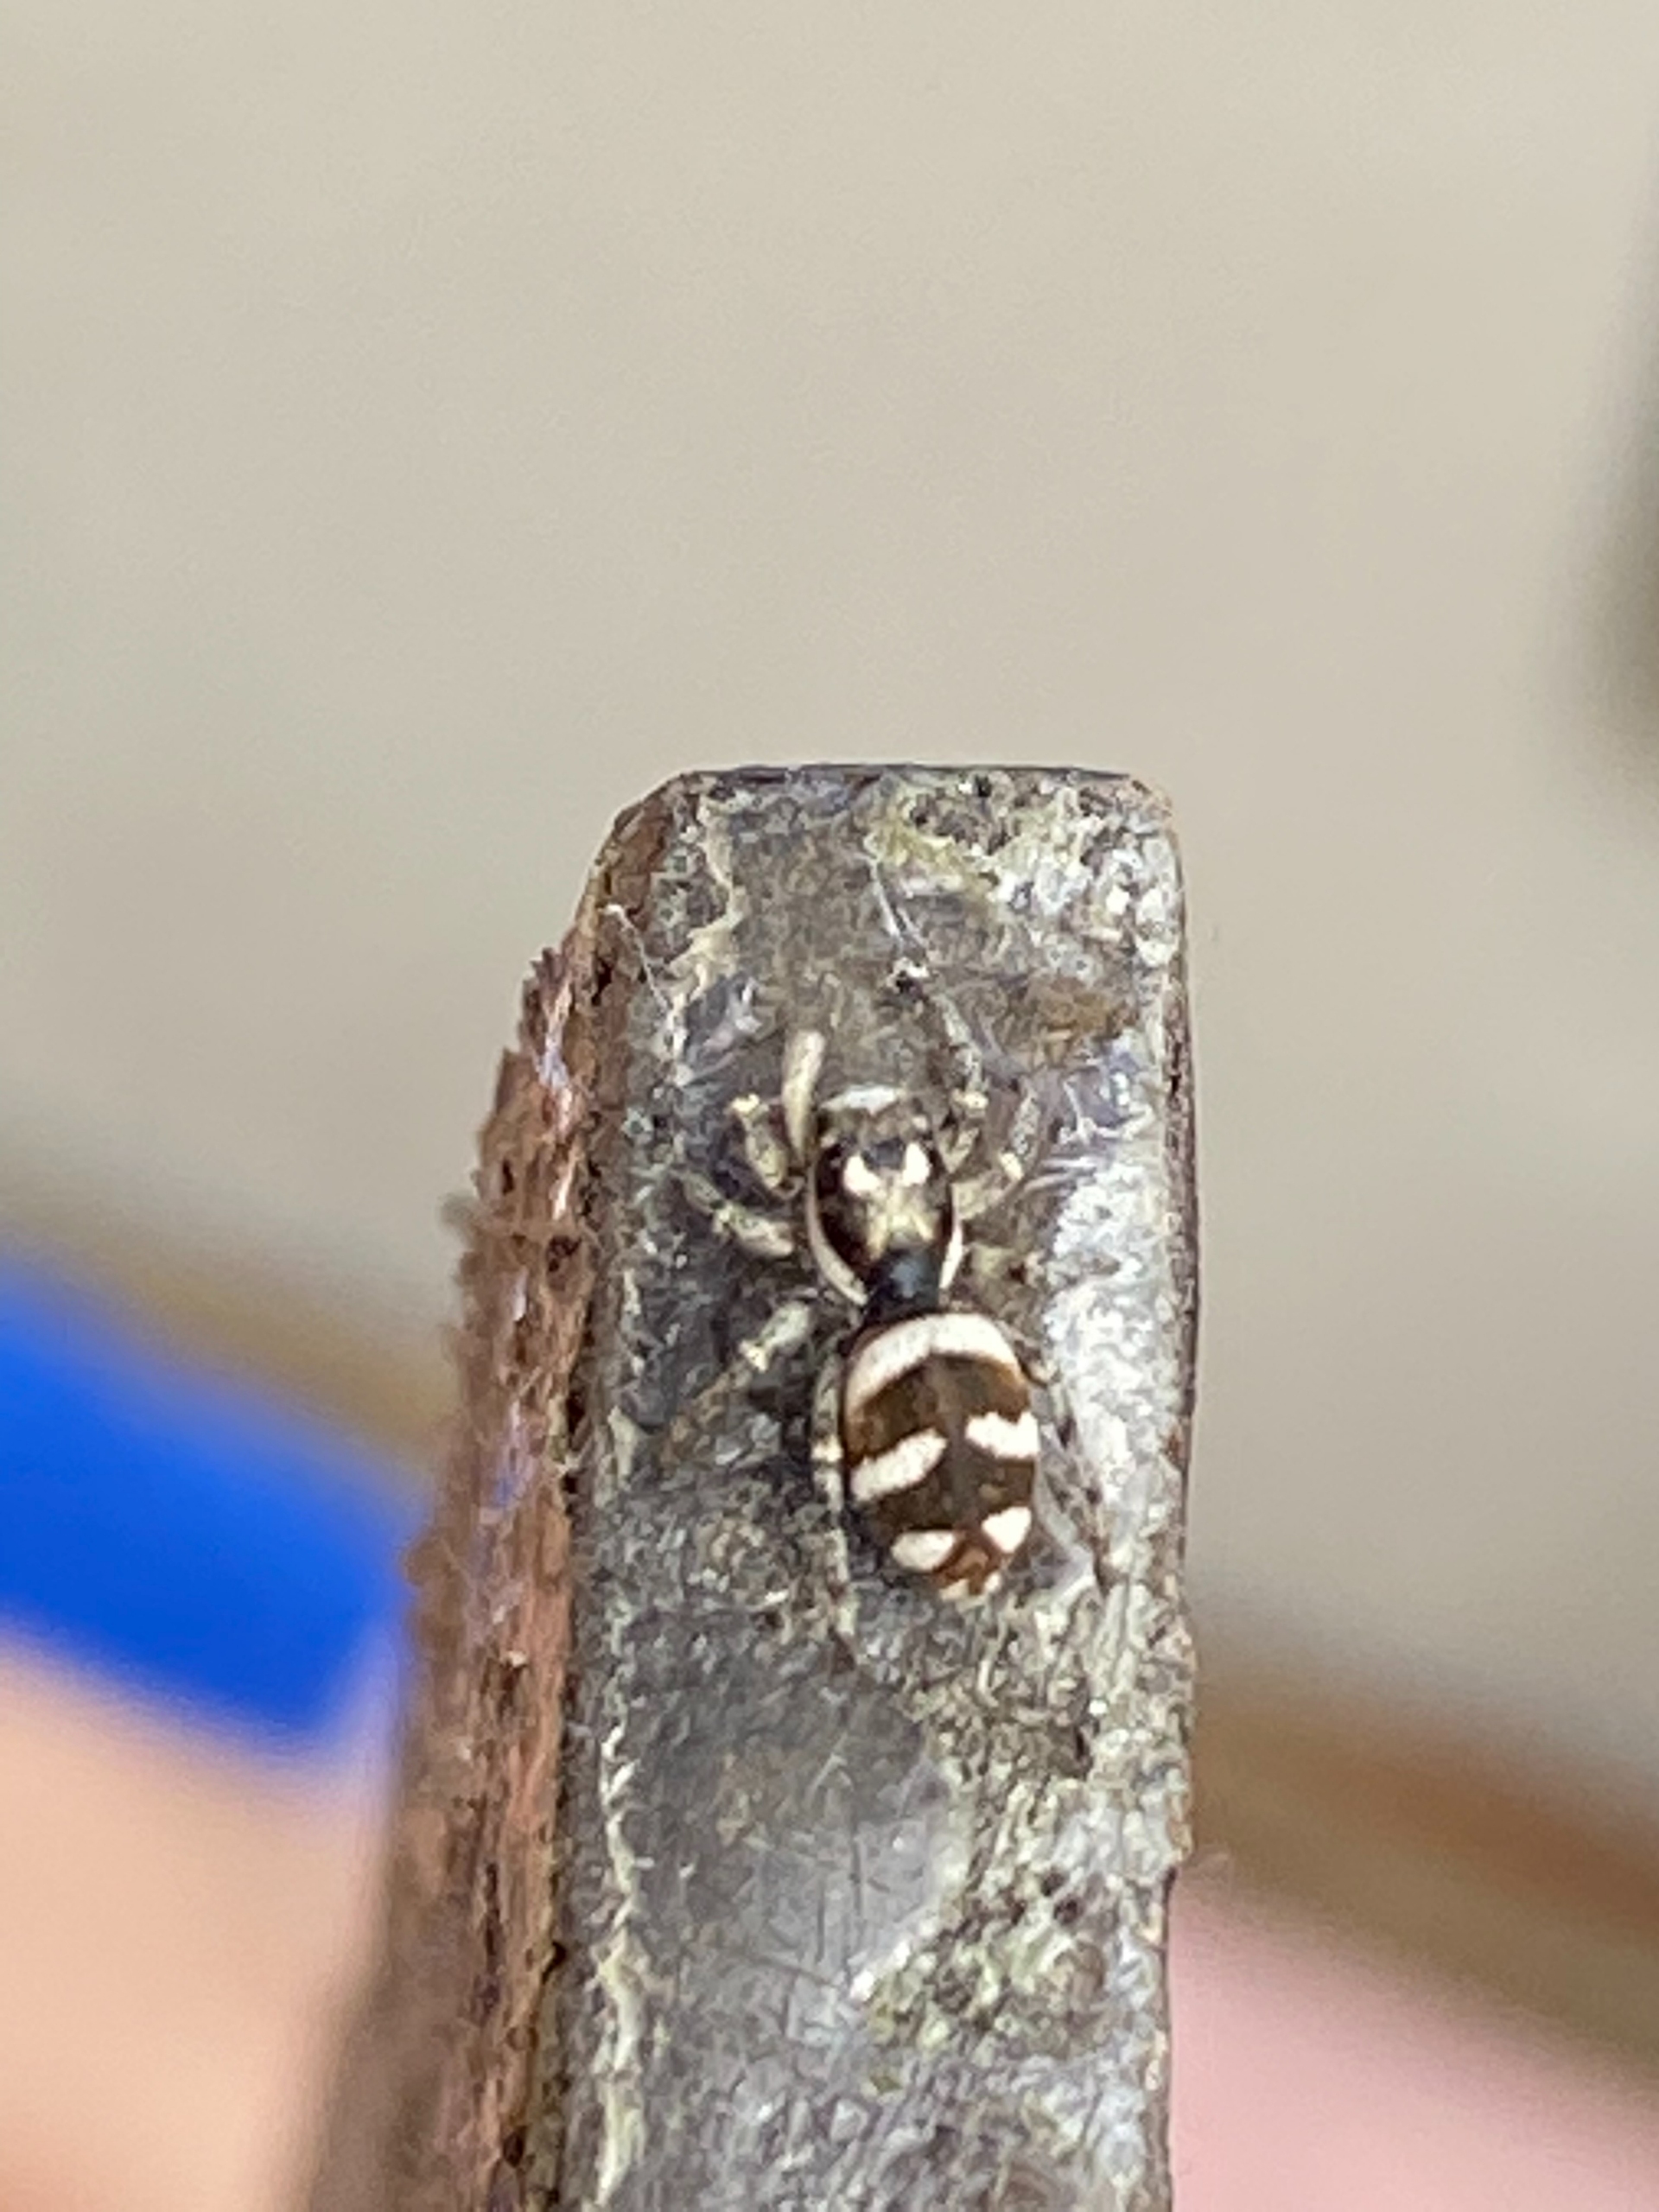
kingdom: Animalia
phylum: Arthropoda
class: Arachnida
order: Araneae
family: Salticidae
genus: Salticus
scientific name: Salticus scenicus
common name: Almindelig zebraedderkop
